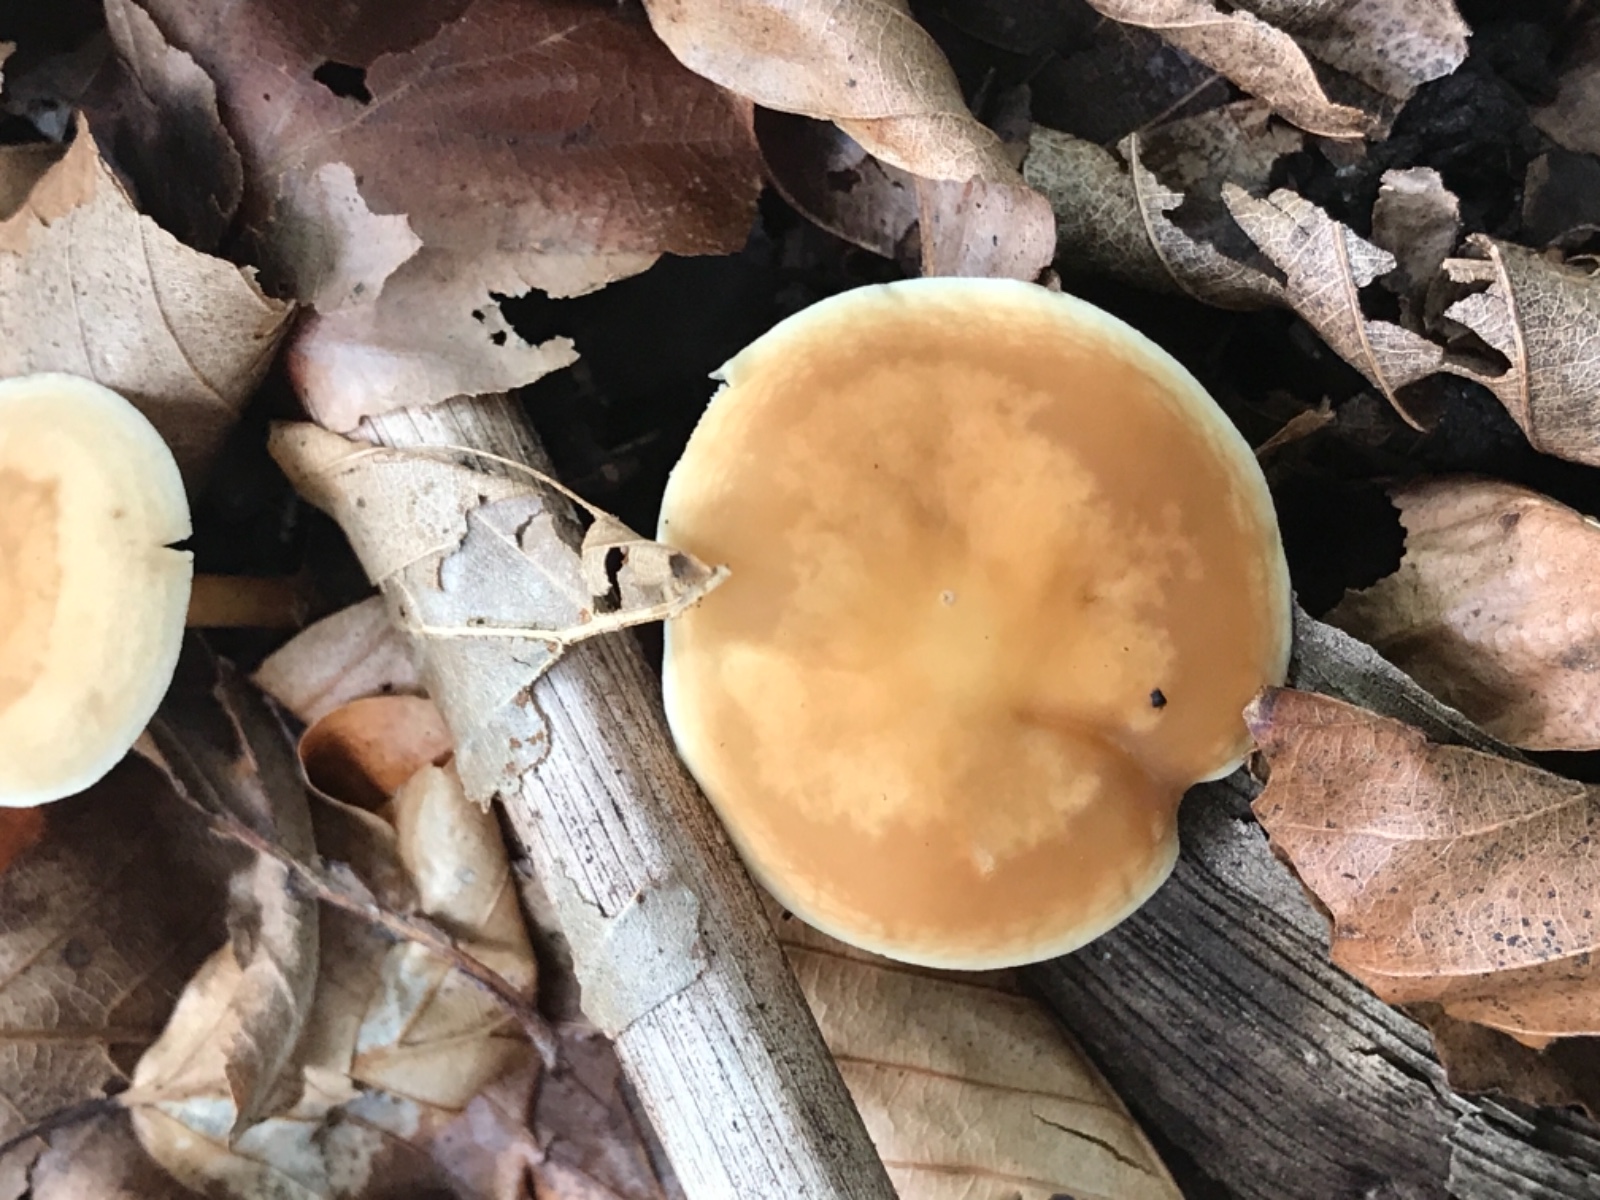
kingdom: Fungi
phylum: Basidiomycota
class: Agaricomycetes
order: Agaricales
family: Omphalotaceae
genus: Gymnopus
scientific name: Gymnopus dryophilus
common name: løv-fladhat
